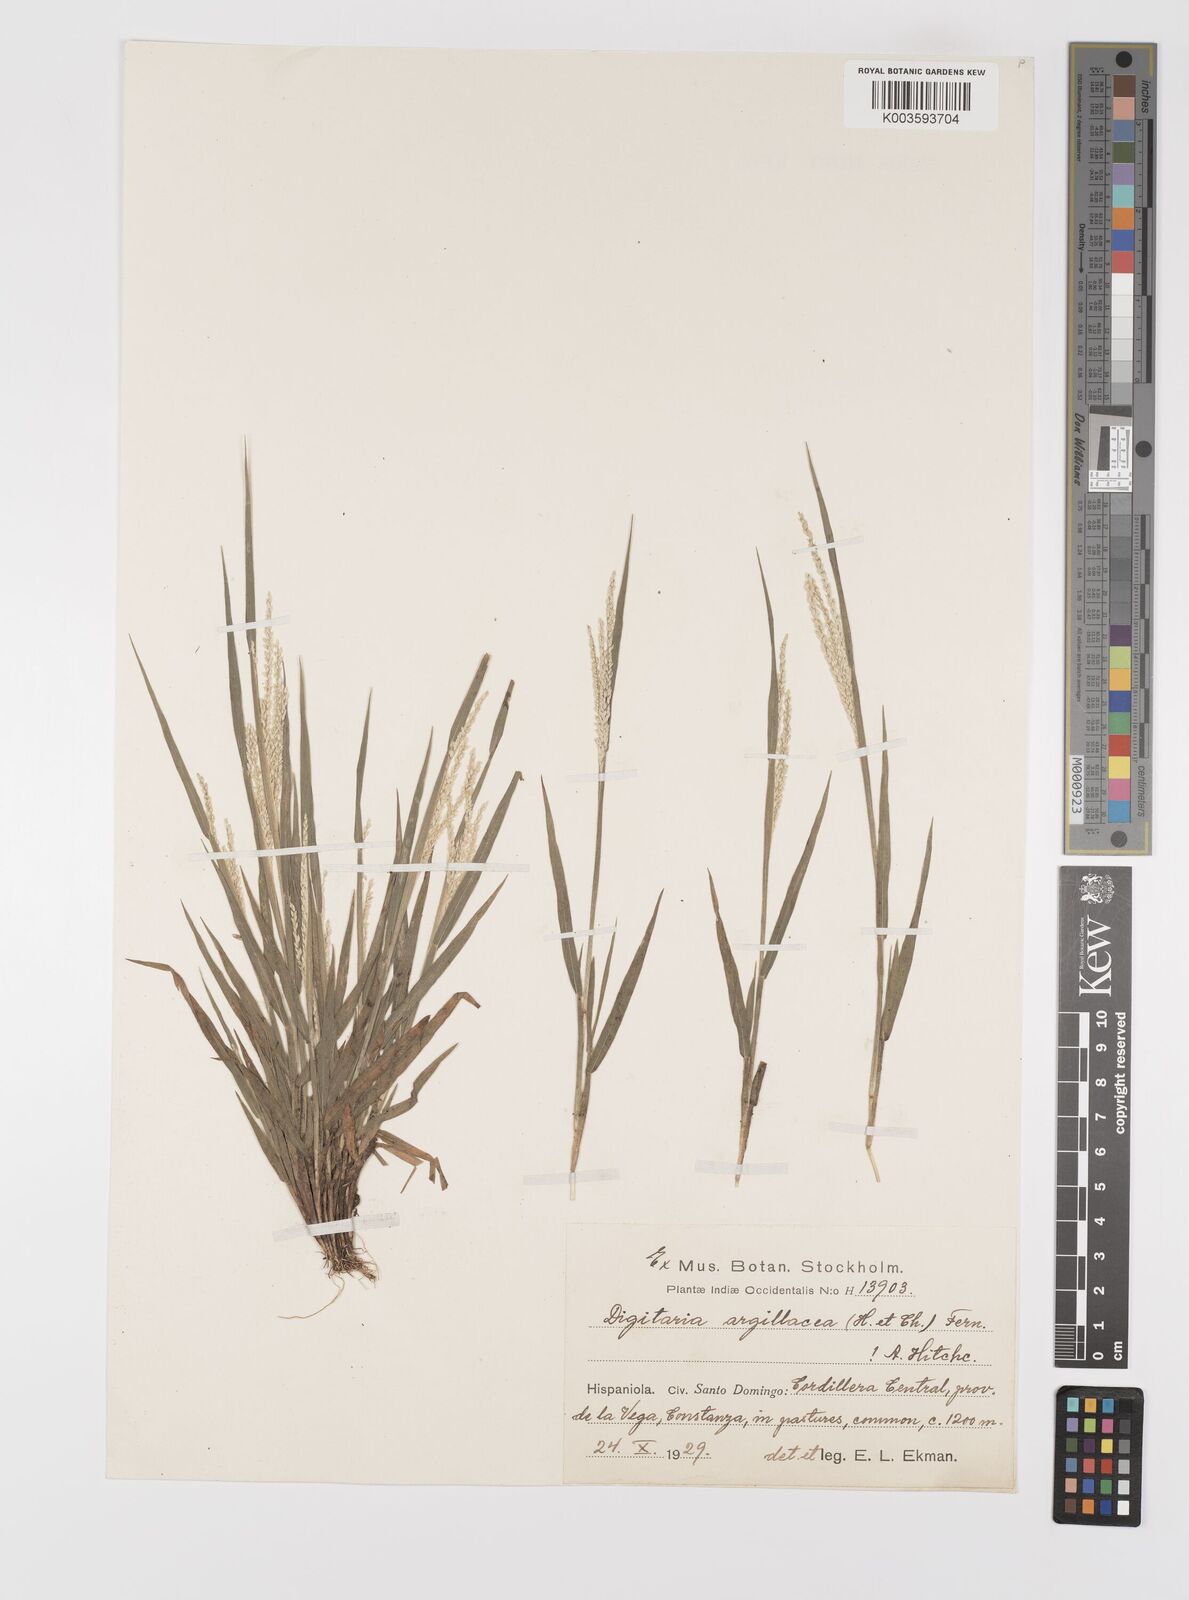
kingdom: Plantae
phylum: Tracheophyta
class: Liliopsida
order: Poales
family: Poaceae
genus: Digitaria
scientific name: Digitaria argillacea
